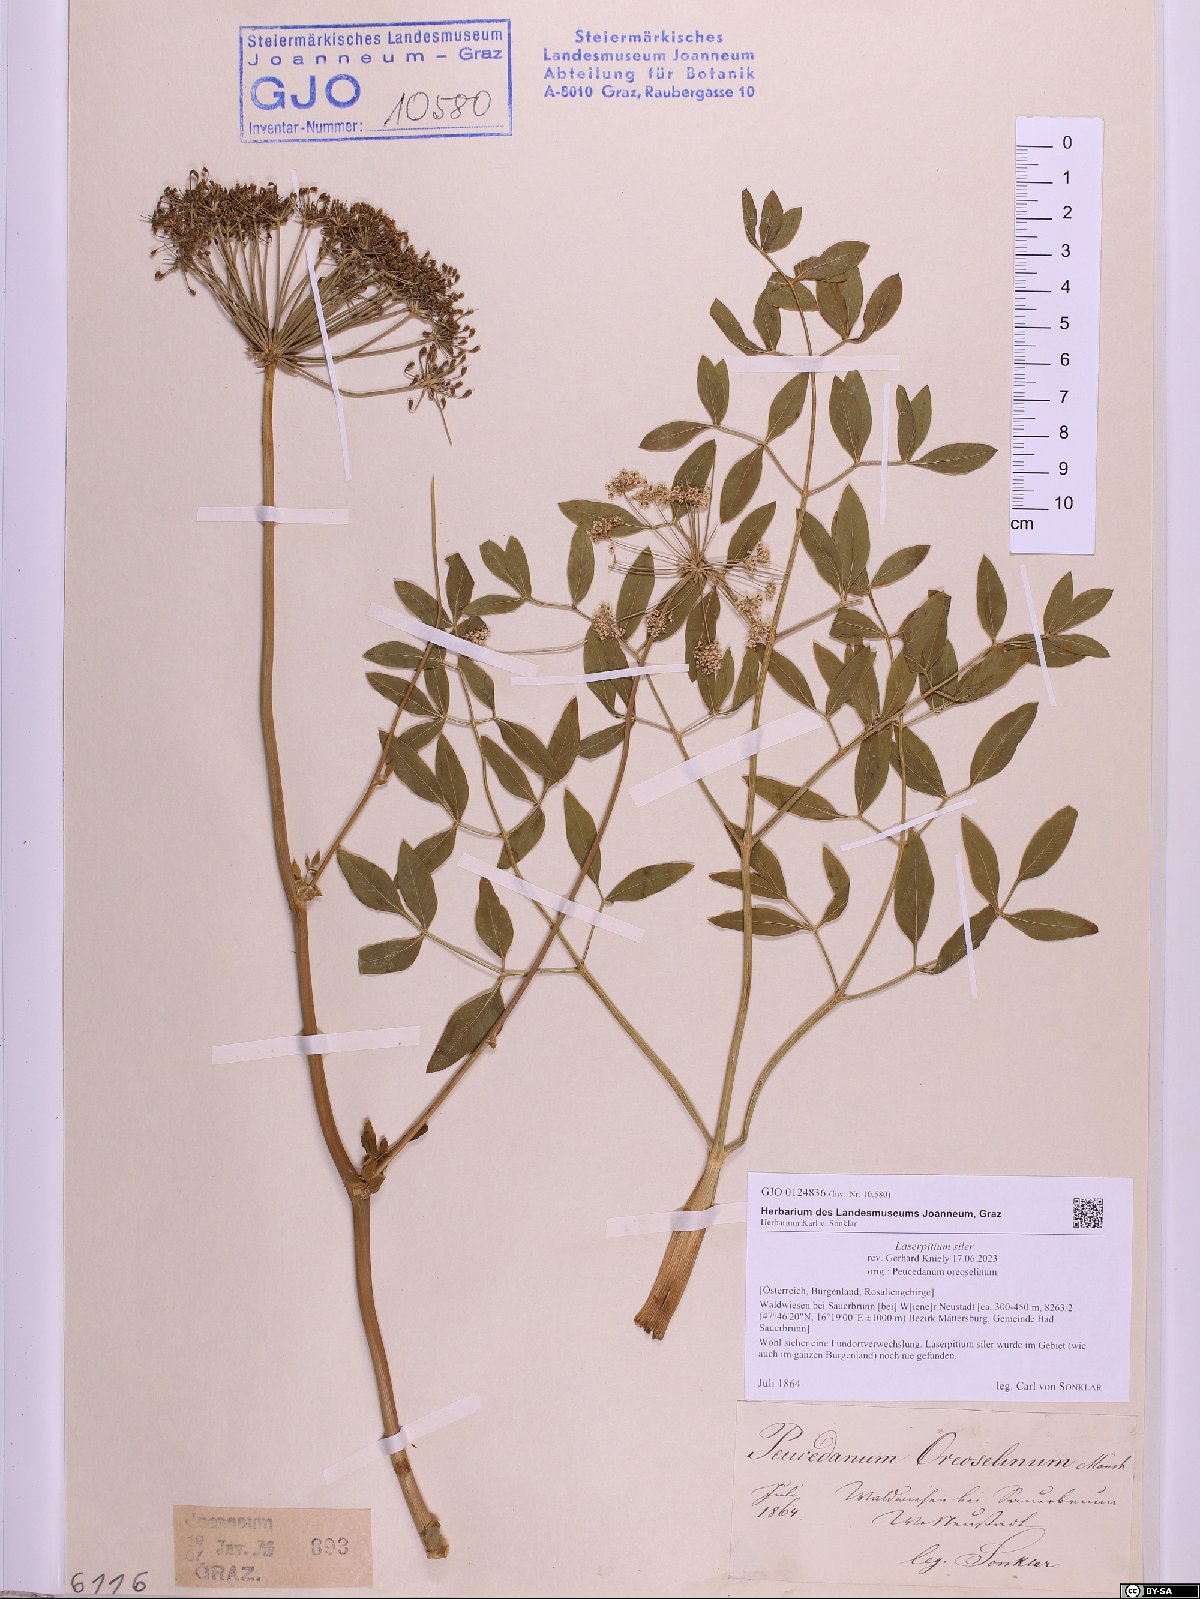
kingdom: Plantae
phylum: Tracheophyta
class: Magnoliopsida
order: Apiales
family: Apiaceae
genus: Siler
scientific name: Siler montanum
